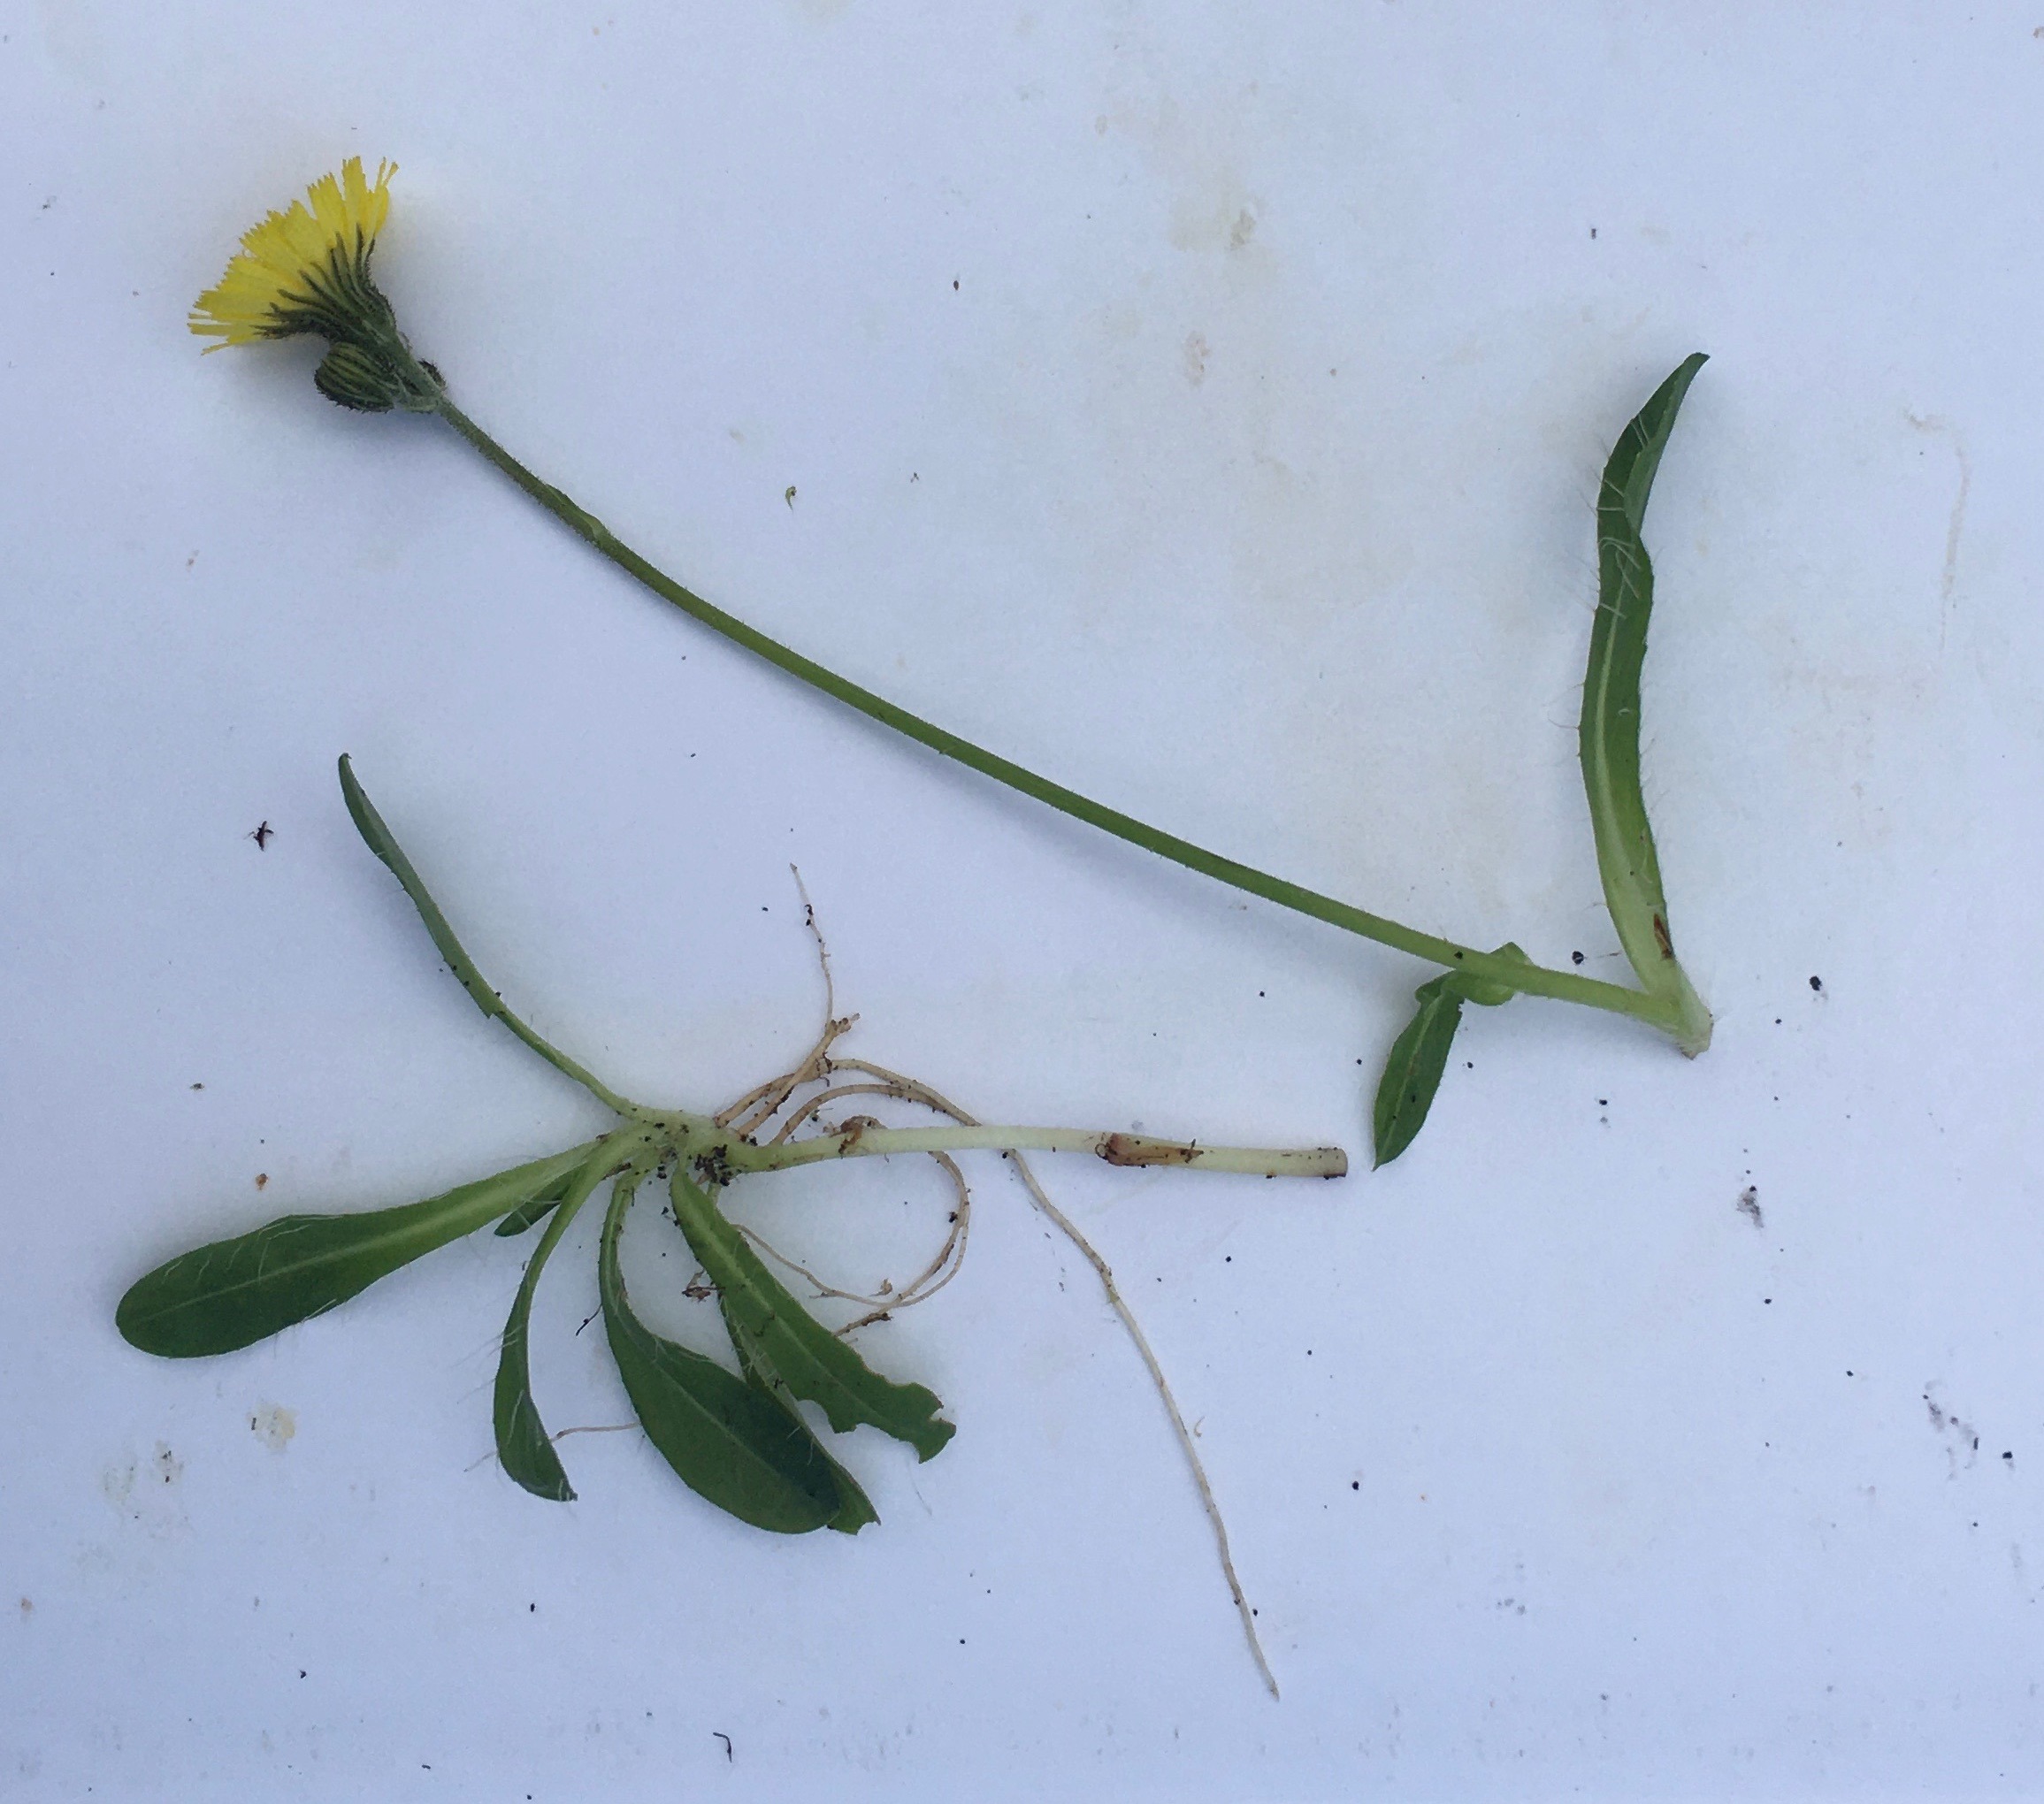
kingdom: Plantae
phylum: Tracheophyta
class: Magnoliopsida
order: Asterales
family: Asteraceae
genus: Pilosella
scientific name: Pilosella lactucella
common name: Lancetbladet høgeurt
